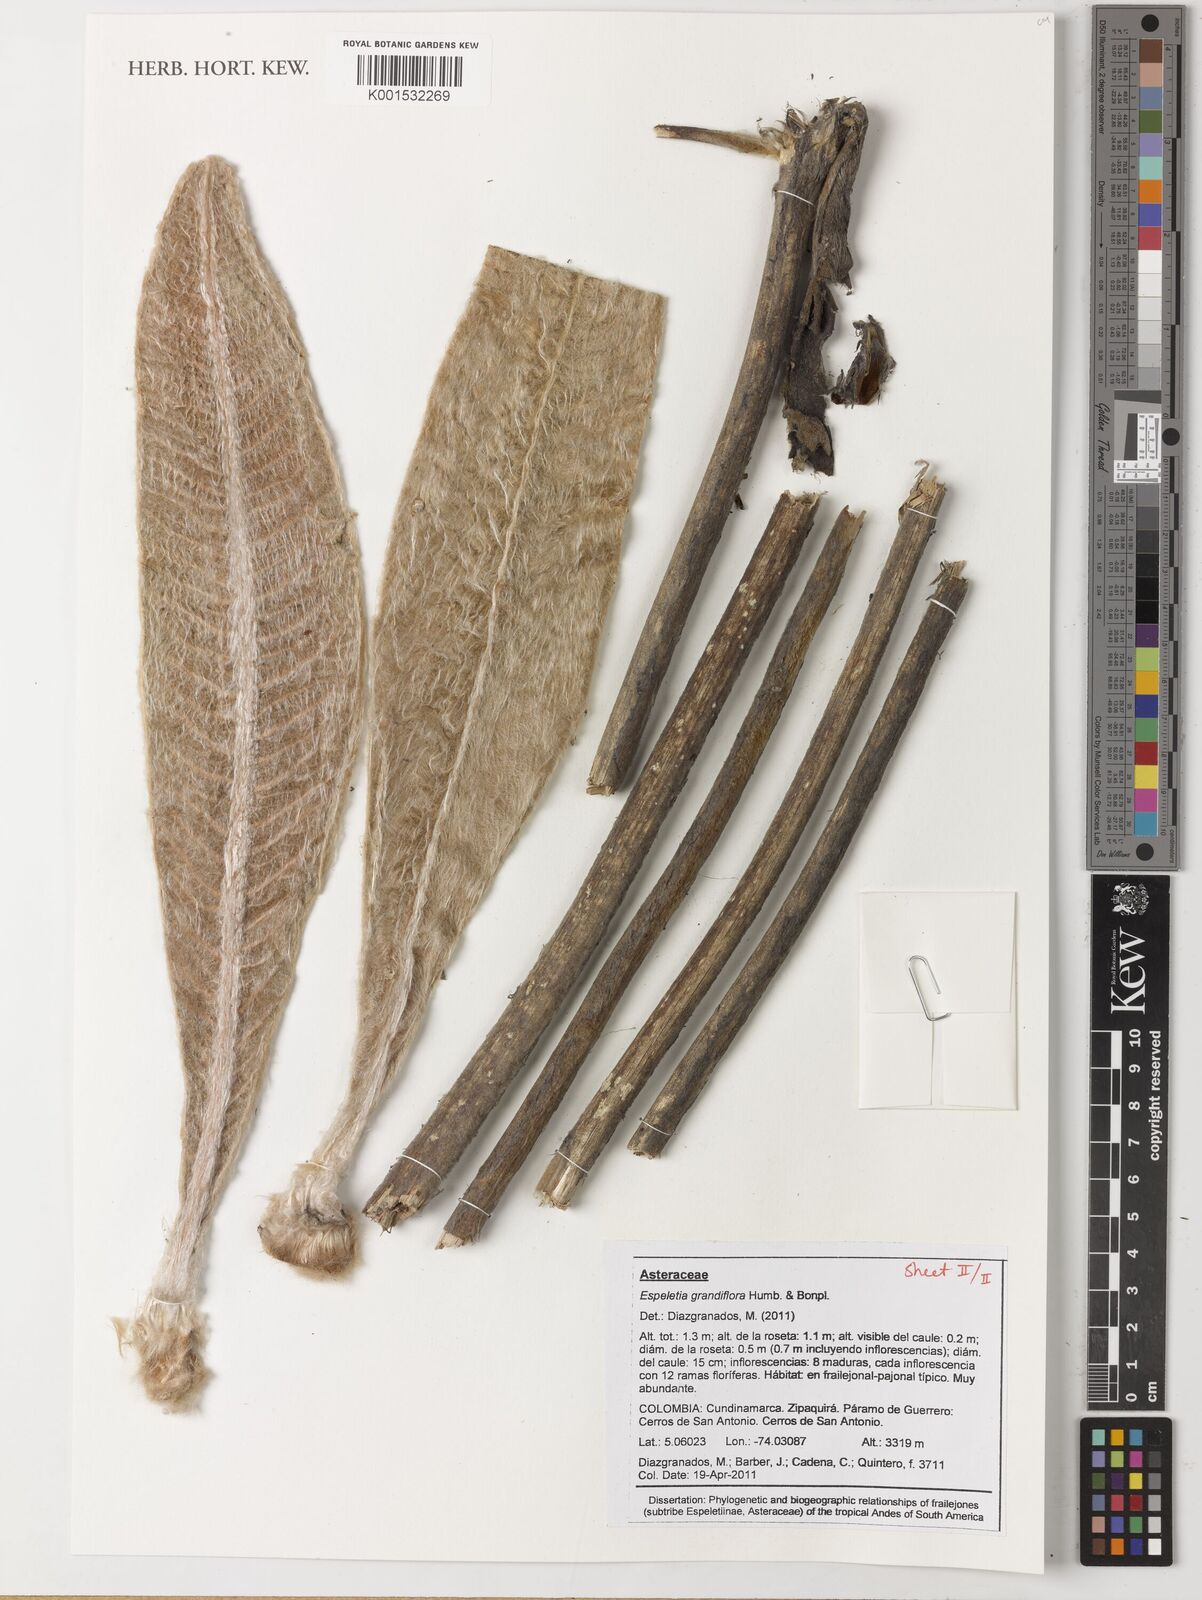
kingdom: Plantae
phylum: Tracheophyta
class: Magnoliopsida
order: Asterales
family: Asteraceae
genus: Espeletia
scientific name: Espeletia grandiflora
